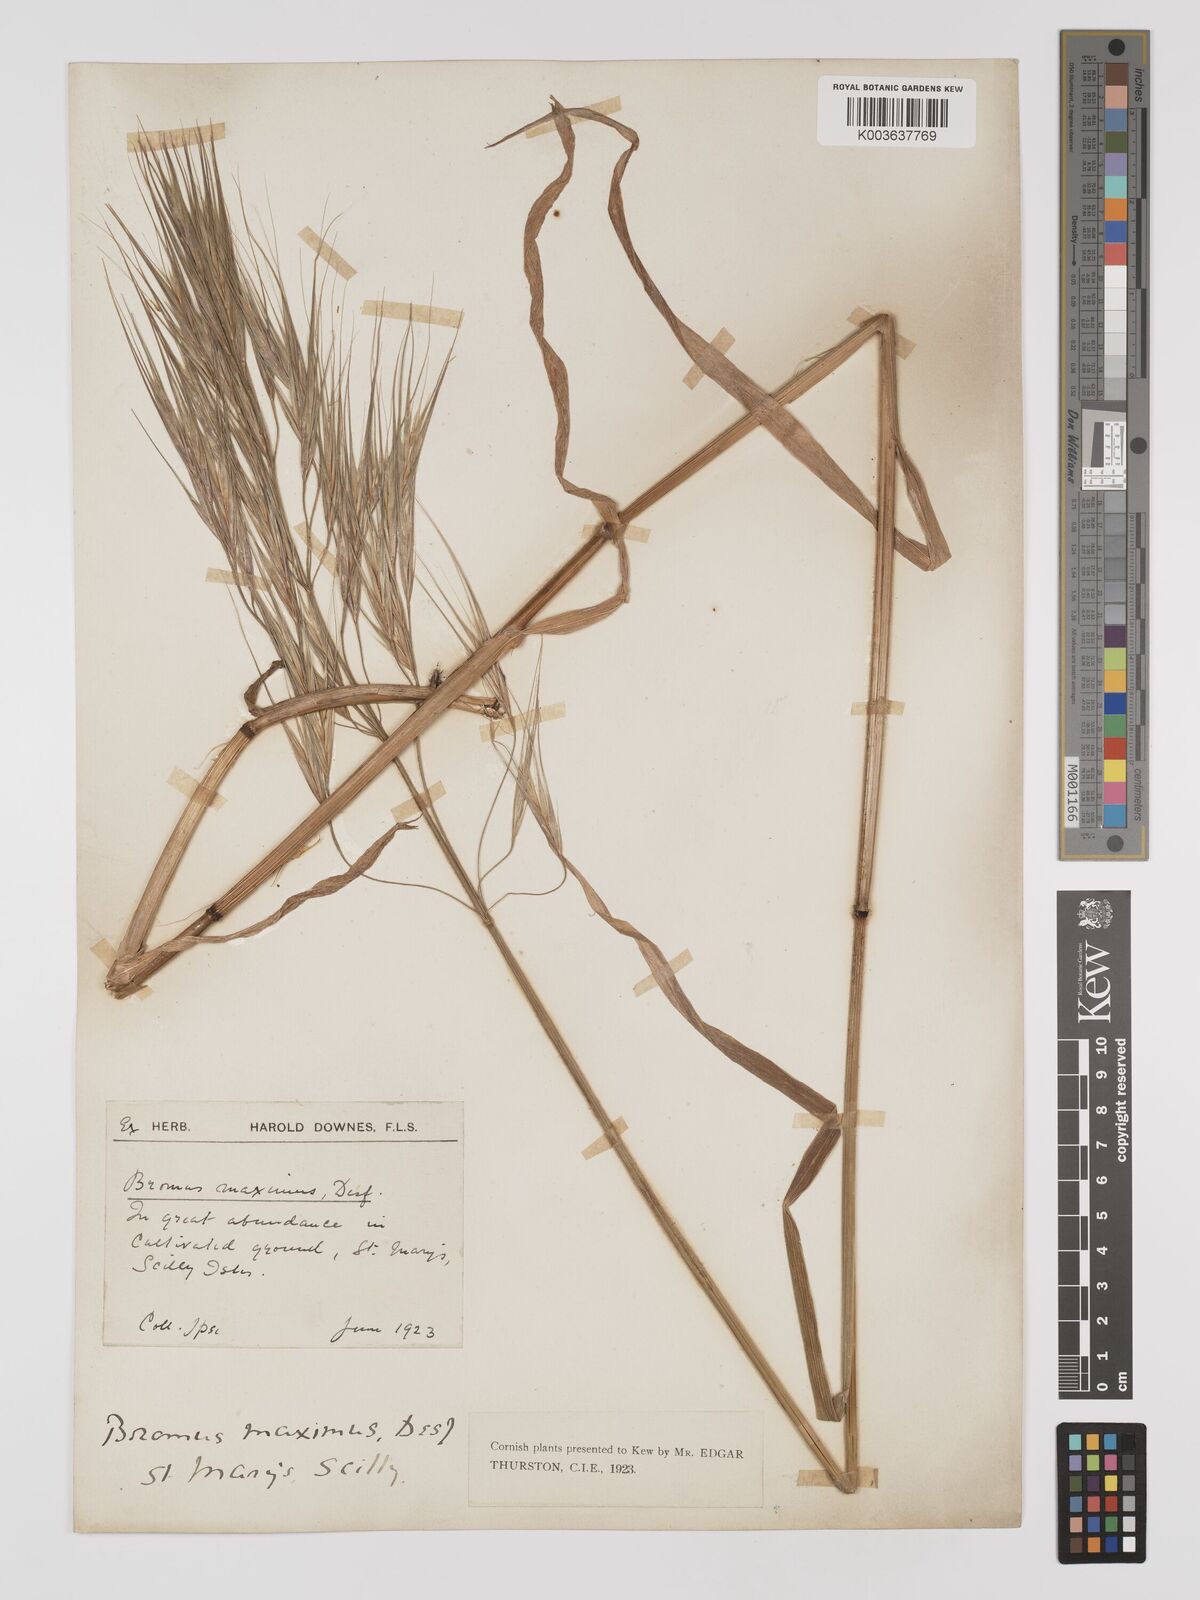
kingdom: Plantae
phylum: Tracheophyta
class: Liliopsida
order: Poales
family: Poaceae
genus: Bromus
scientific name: Bromus
